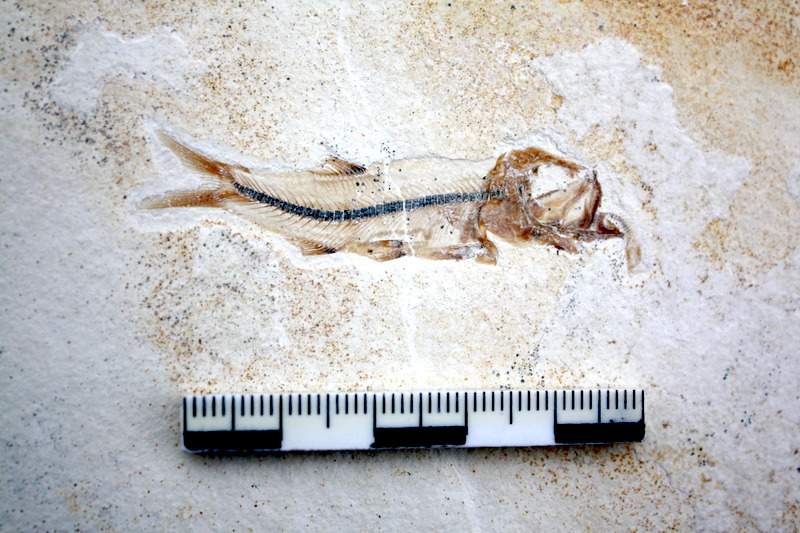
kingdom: Animalia
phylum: Chordata
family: Ascalaboidae
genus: Ebertichthys
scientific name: Ebertichthys ettlingensis
